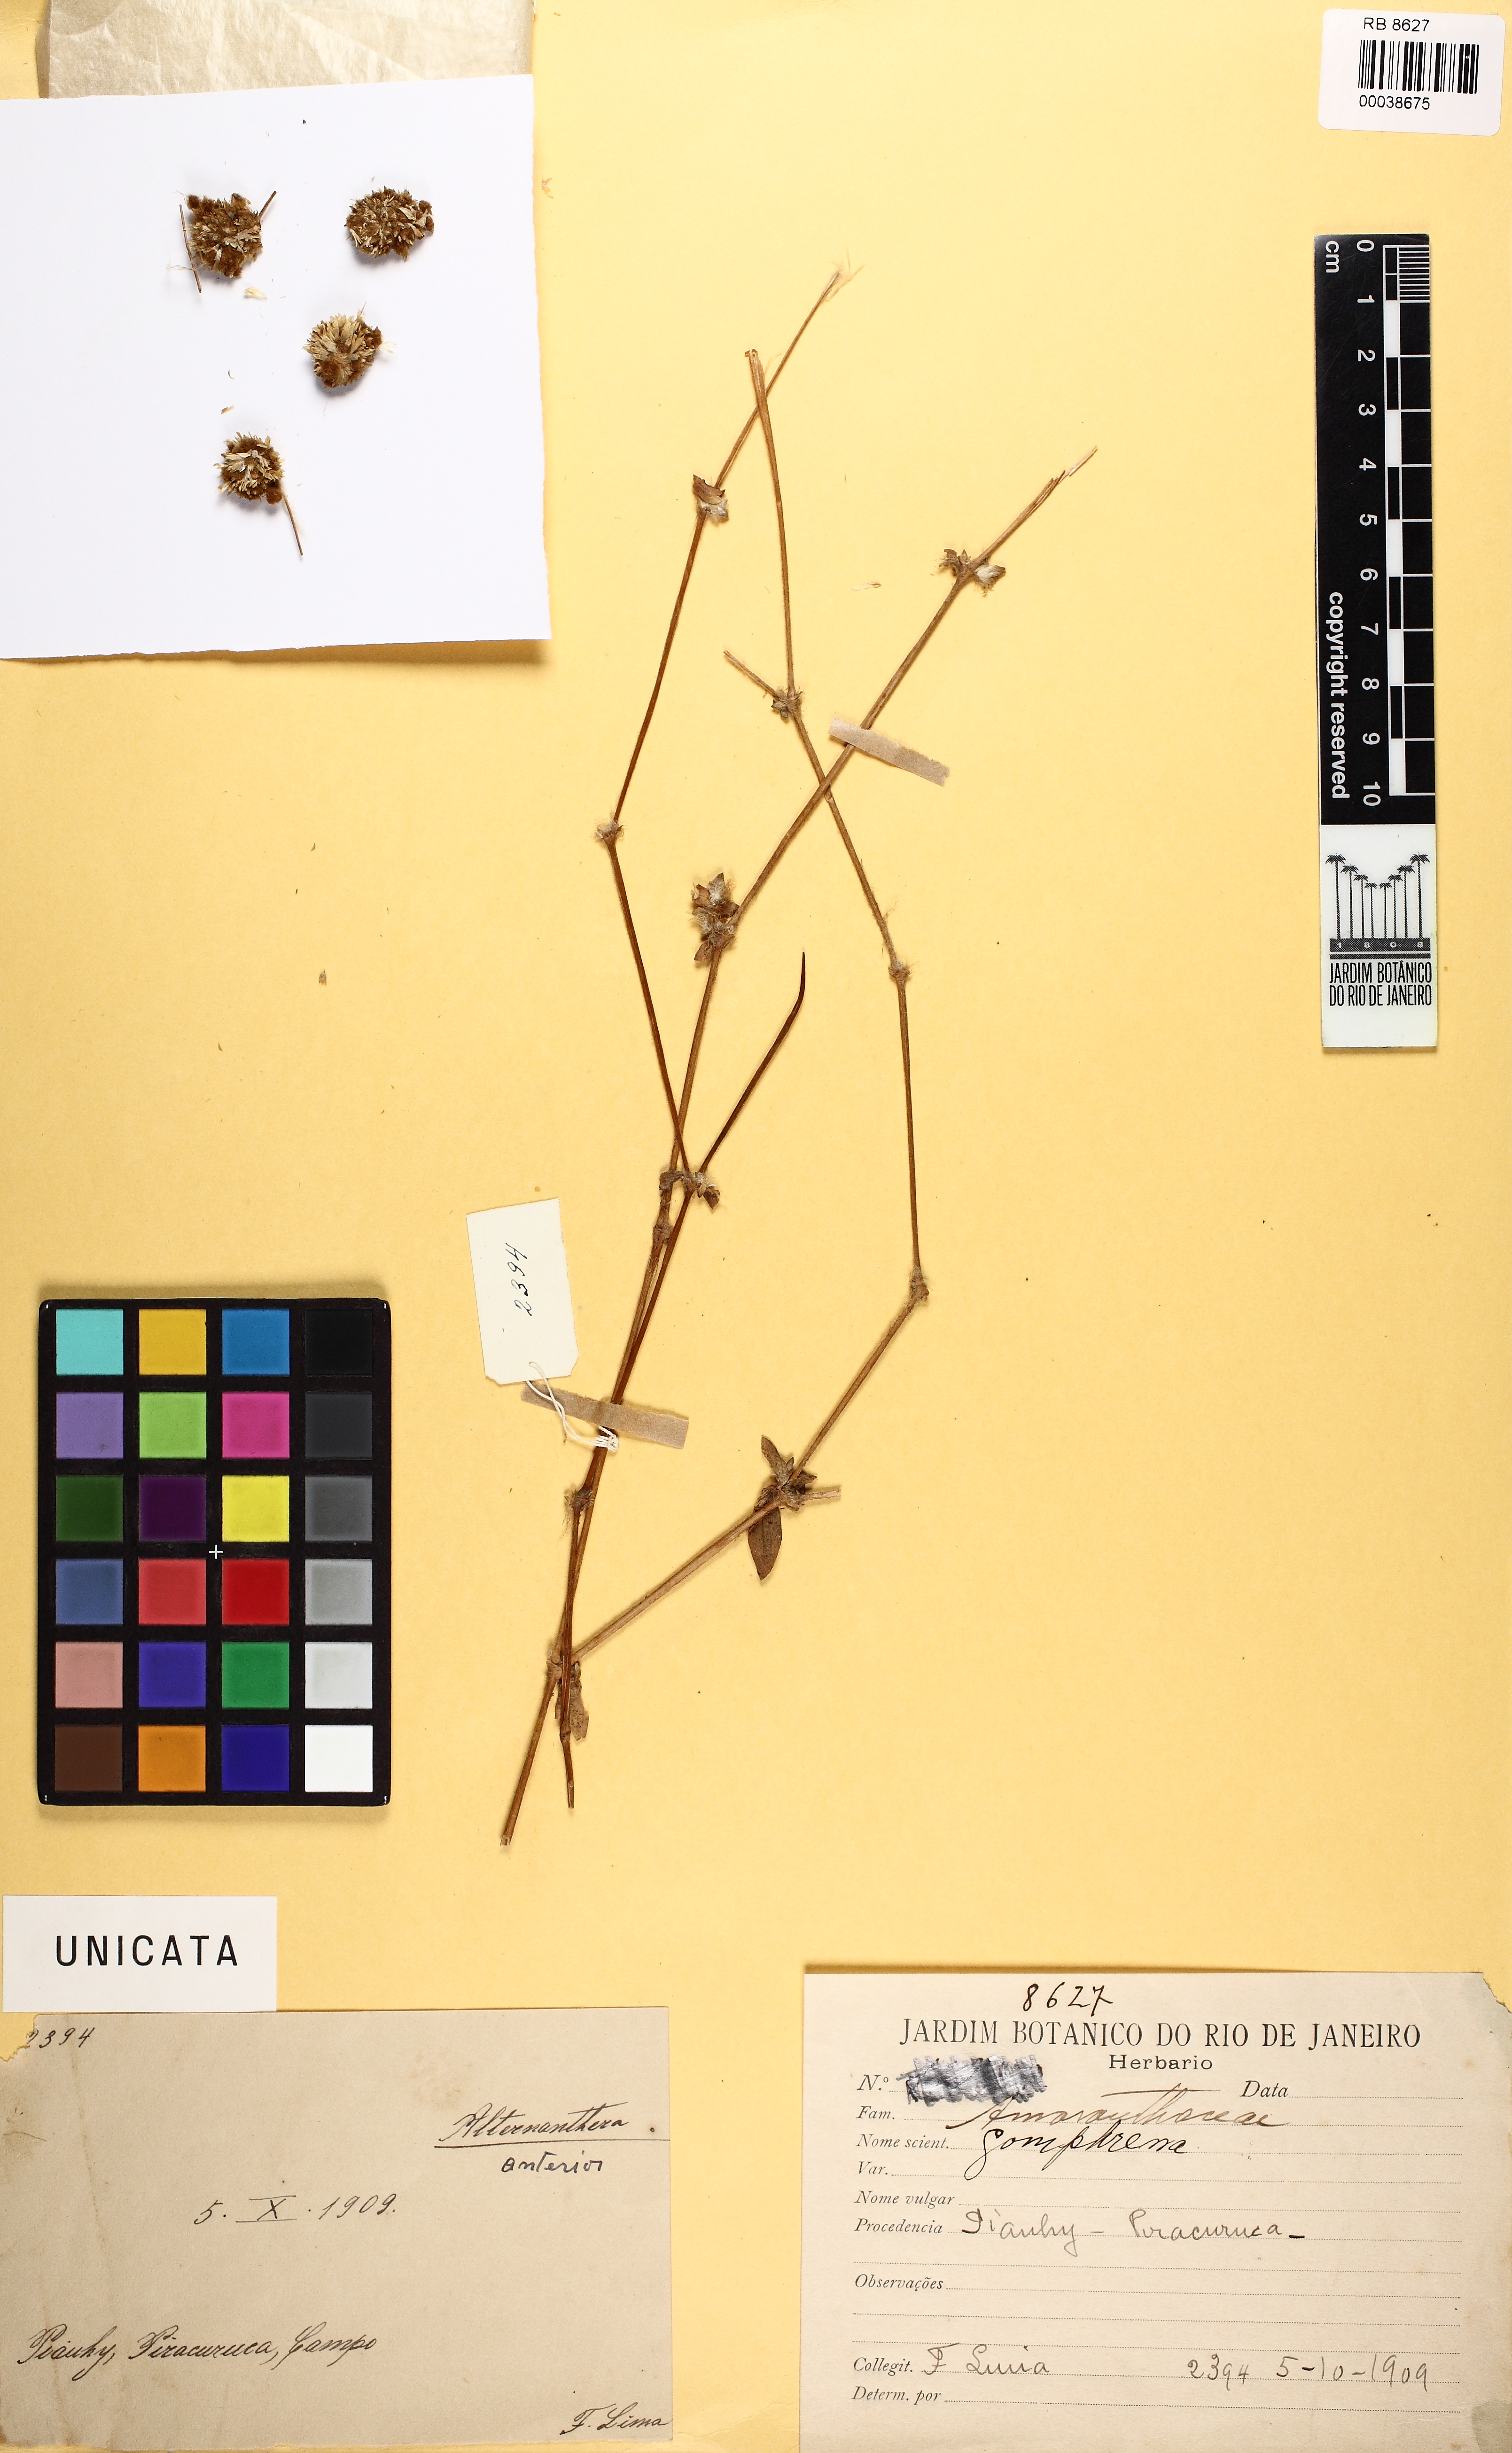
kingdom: Plantae
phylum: Tracheophyta
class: Magnoliopsida
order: Caryophyllales
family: Amaranthaceae
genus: Gomphrena
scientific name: Gomphrena
